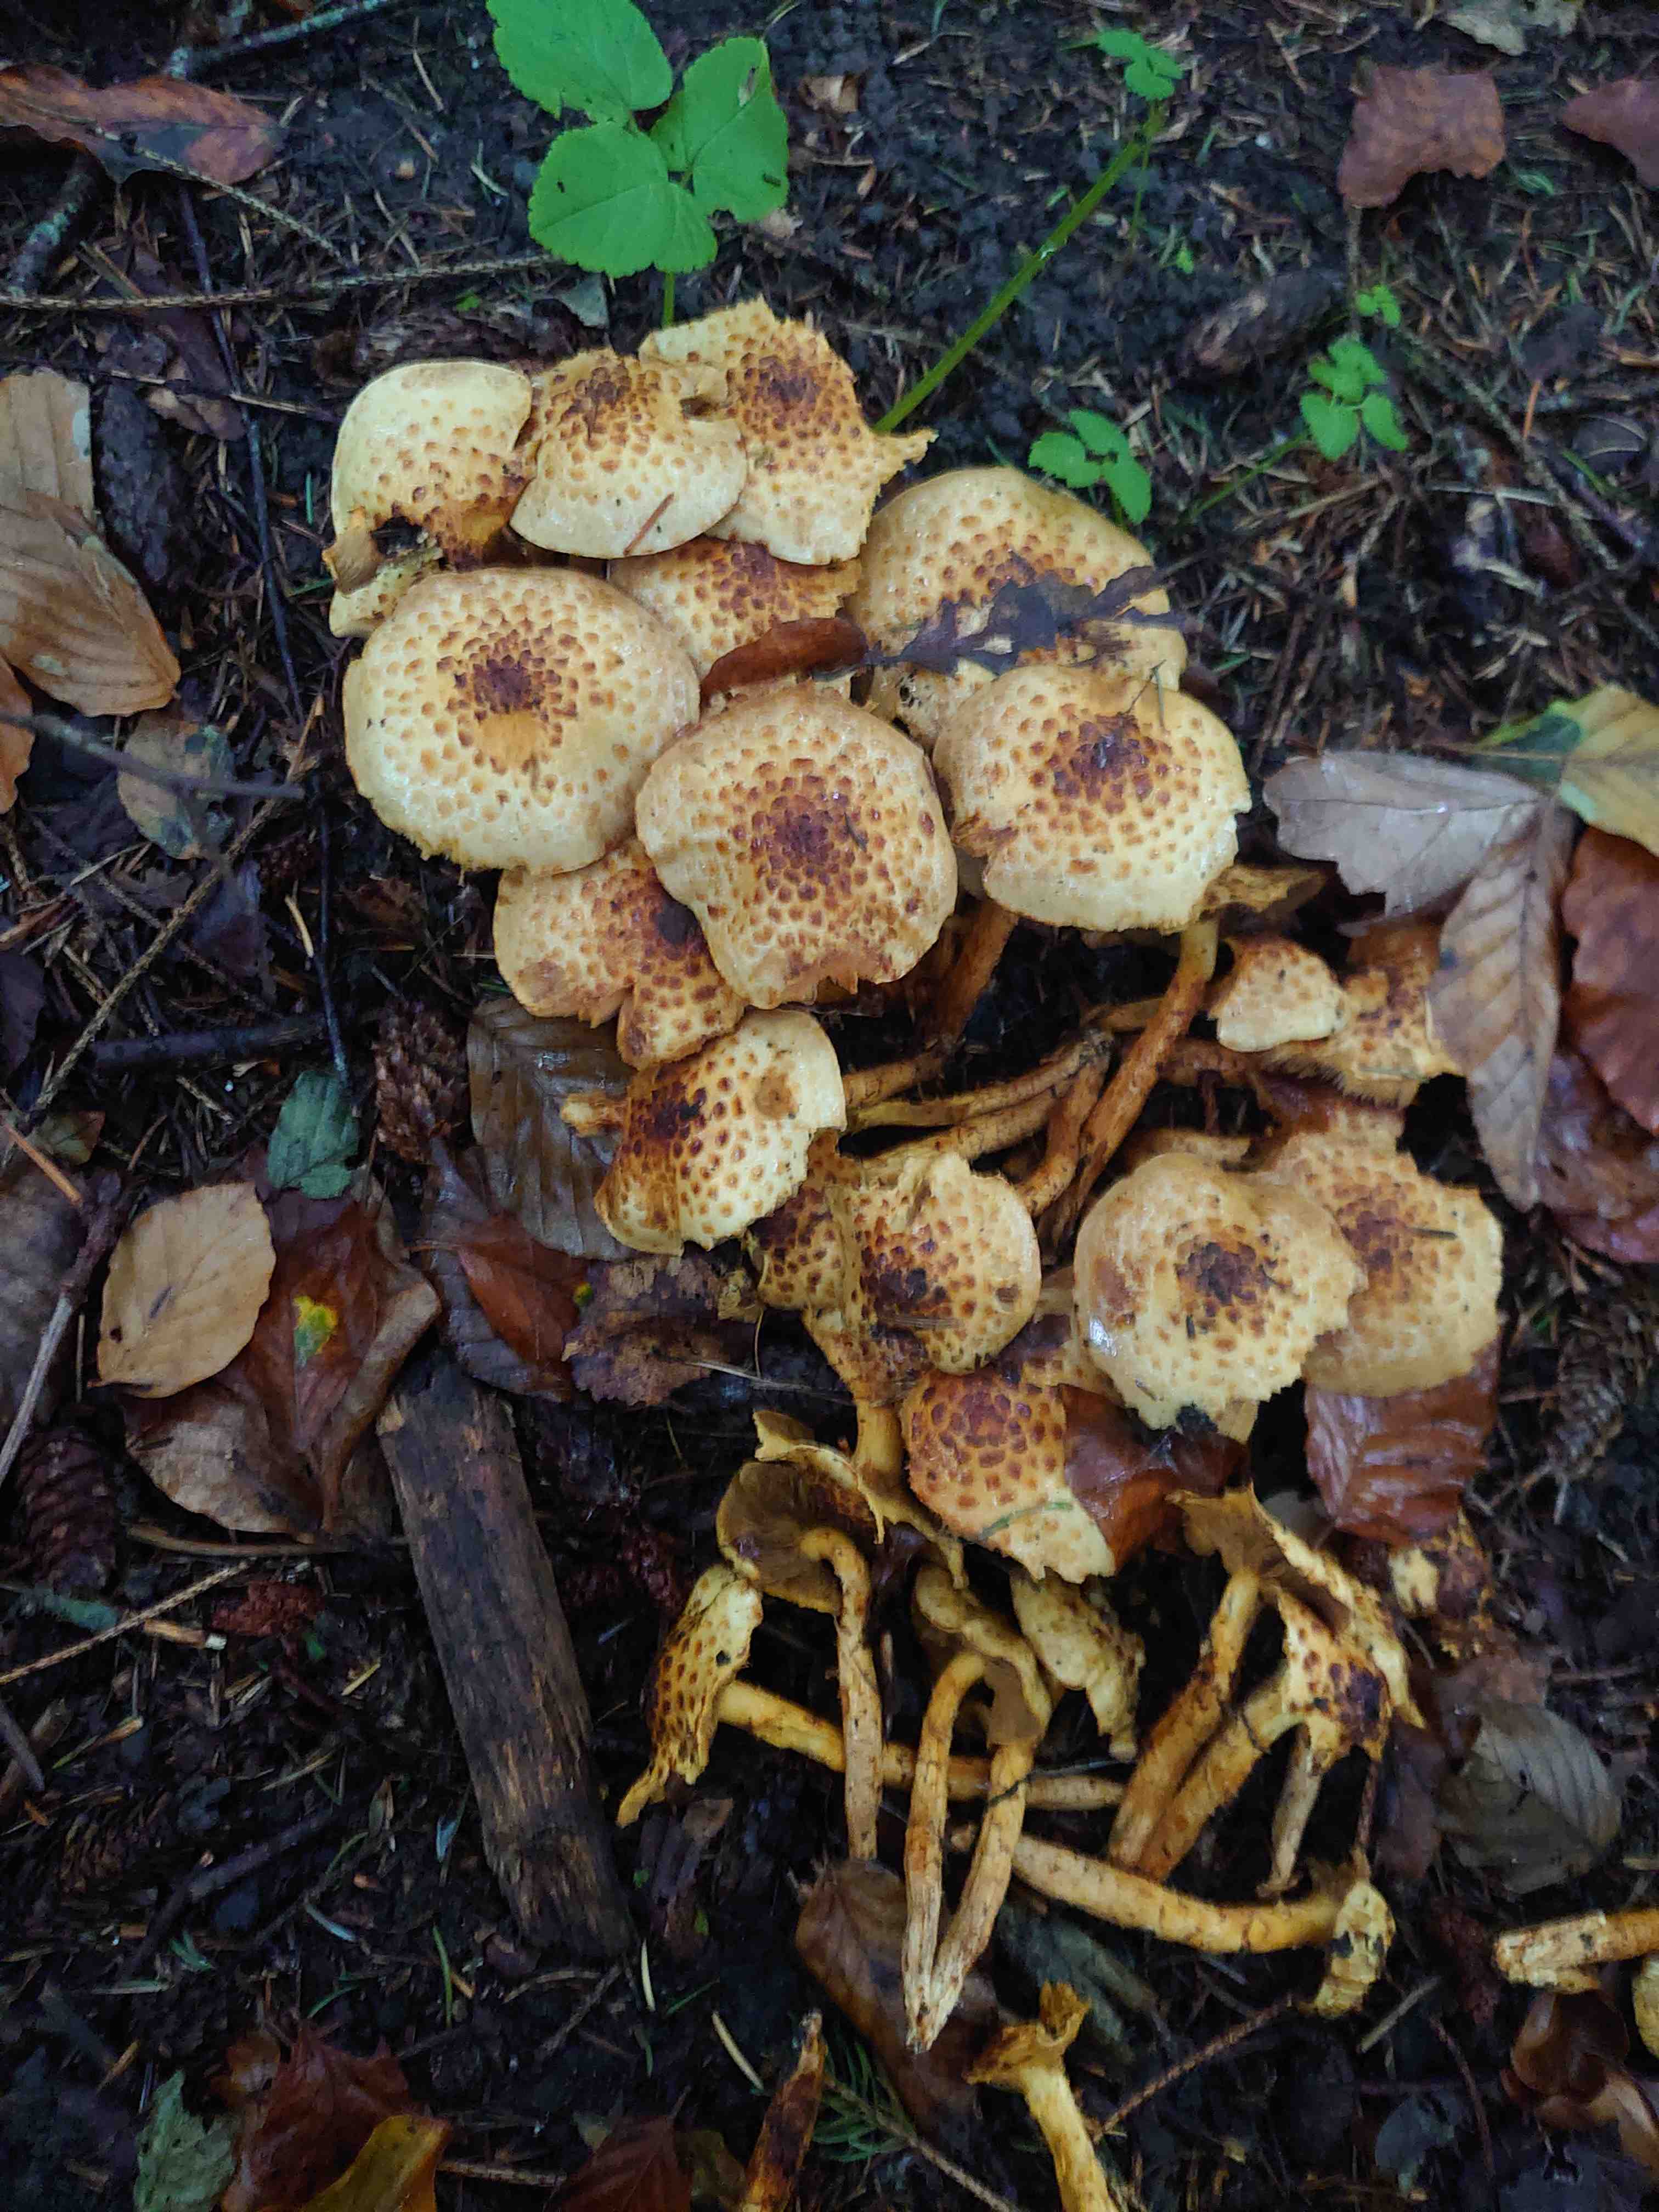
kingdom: Fungi
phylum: Basidiomycota
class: Agaricomycetes
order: Agaricales
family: Strophariaceae
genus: Pholiota
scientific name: Pholiota jahnii
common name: slimet skælhat
